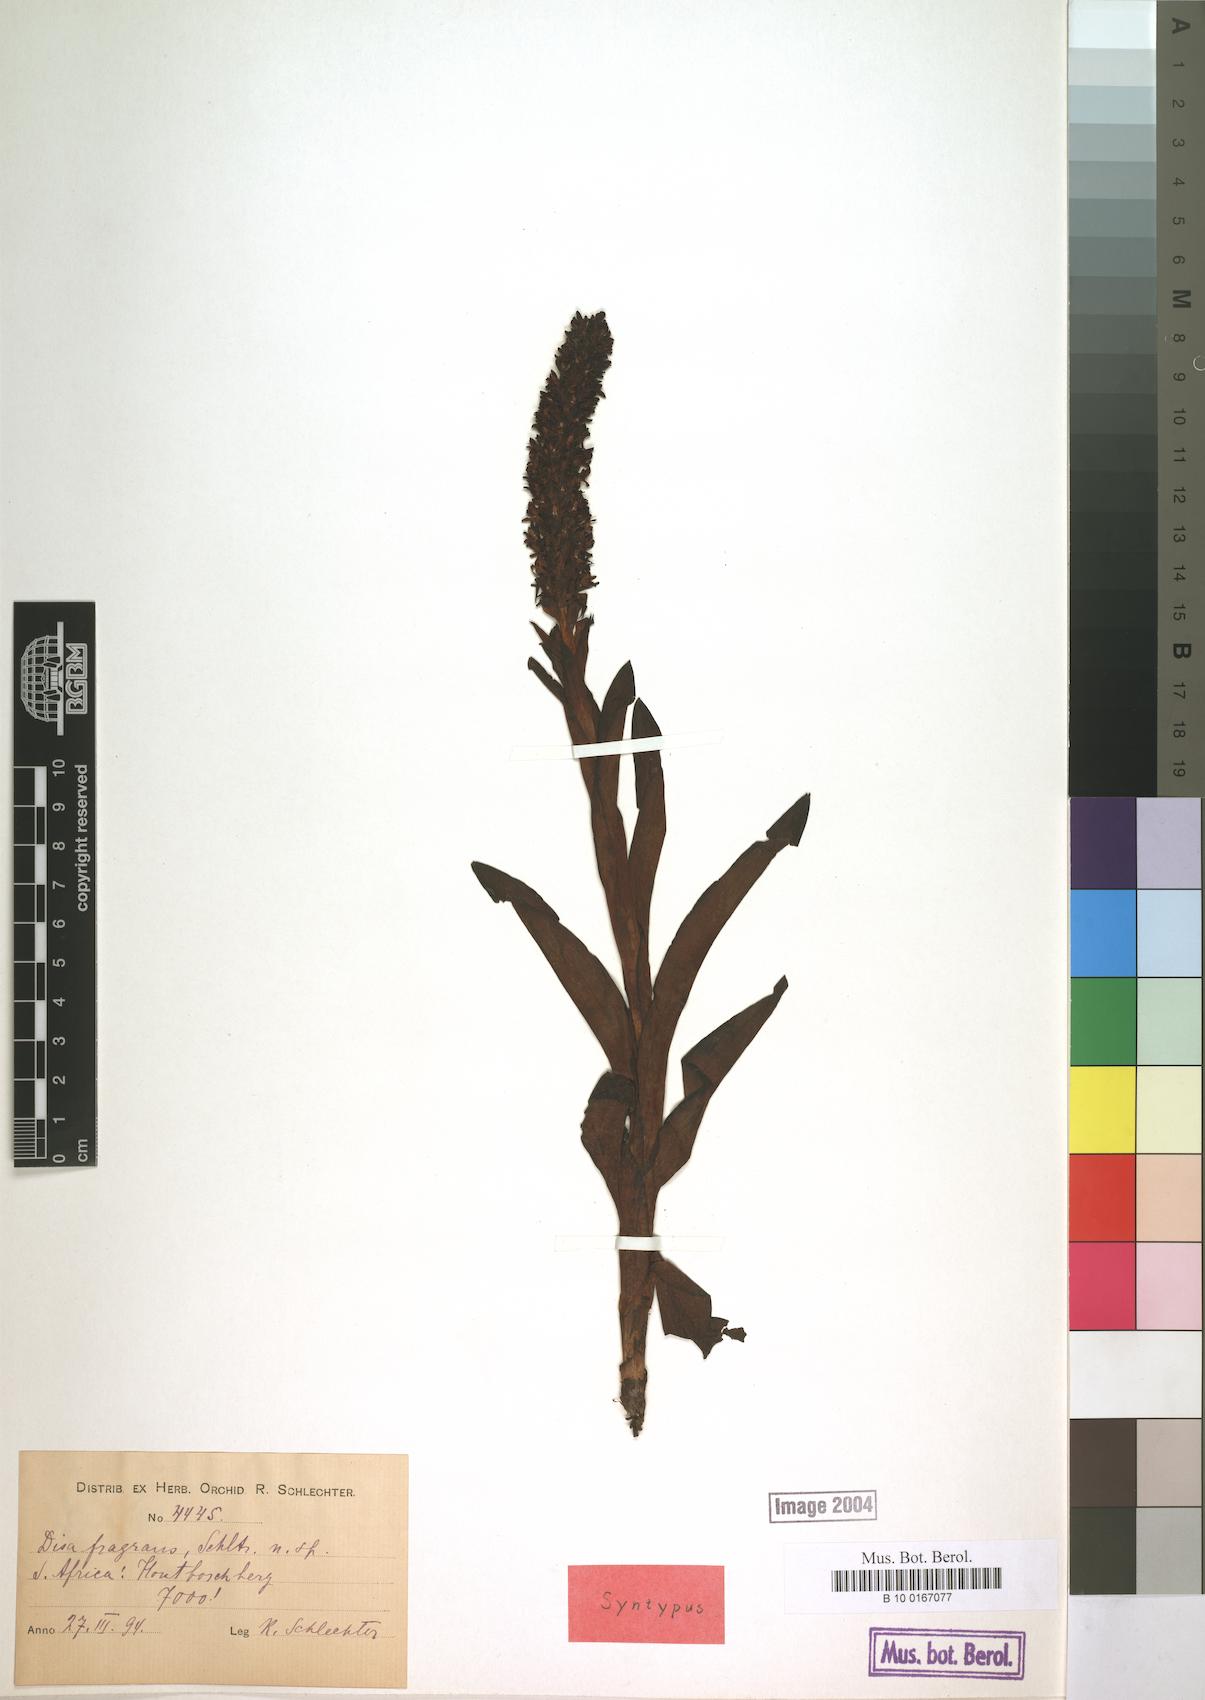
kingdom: Plantae
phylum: Tracheophyta
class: Liliopsida
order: Asparagales
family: Orchidaceae
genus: Disa
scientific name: Disa fragrans
